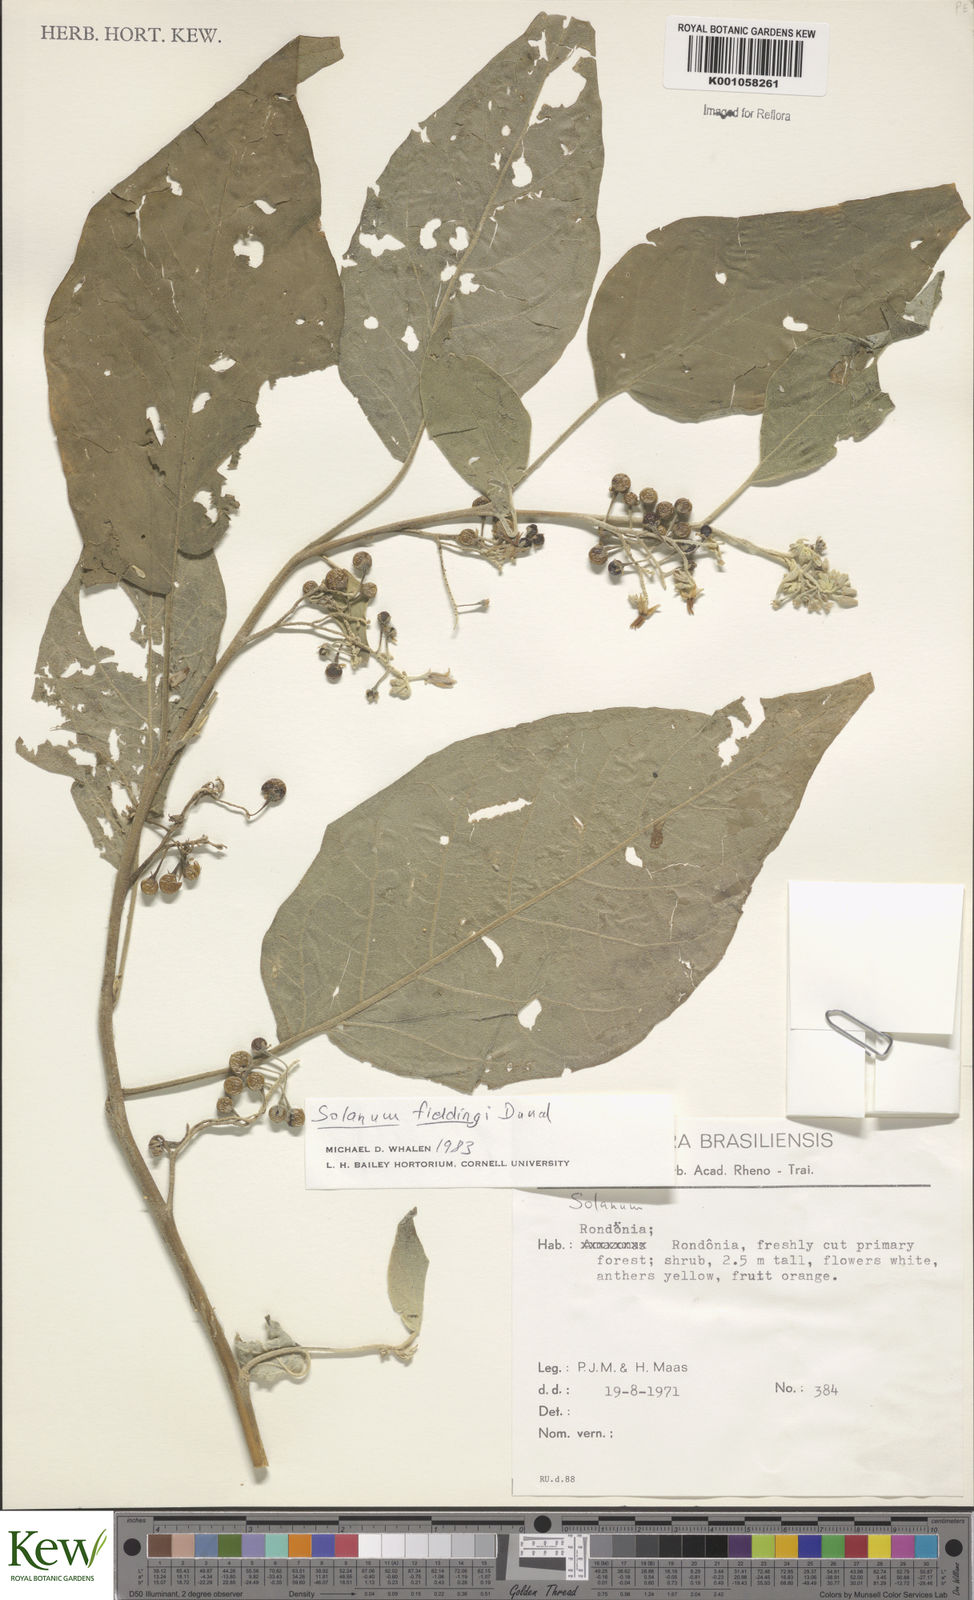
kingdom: Plantae
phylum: Tracheophyta
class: Magnoliopsida
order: Solanales
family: Solanaceae
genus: Solanum
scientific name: Solanum acutilobum
